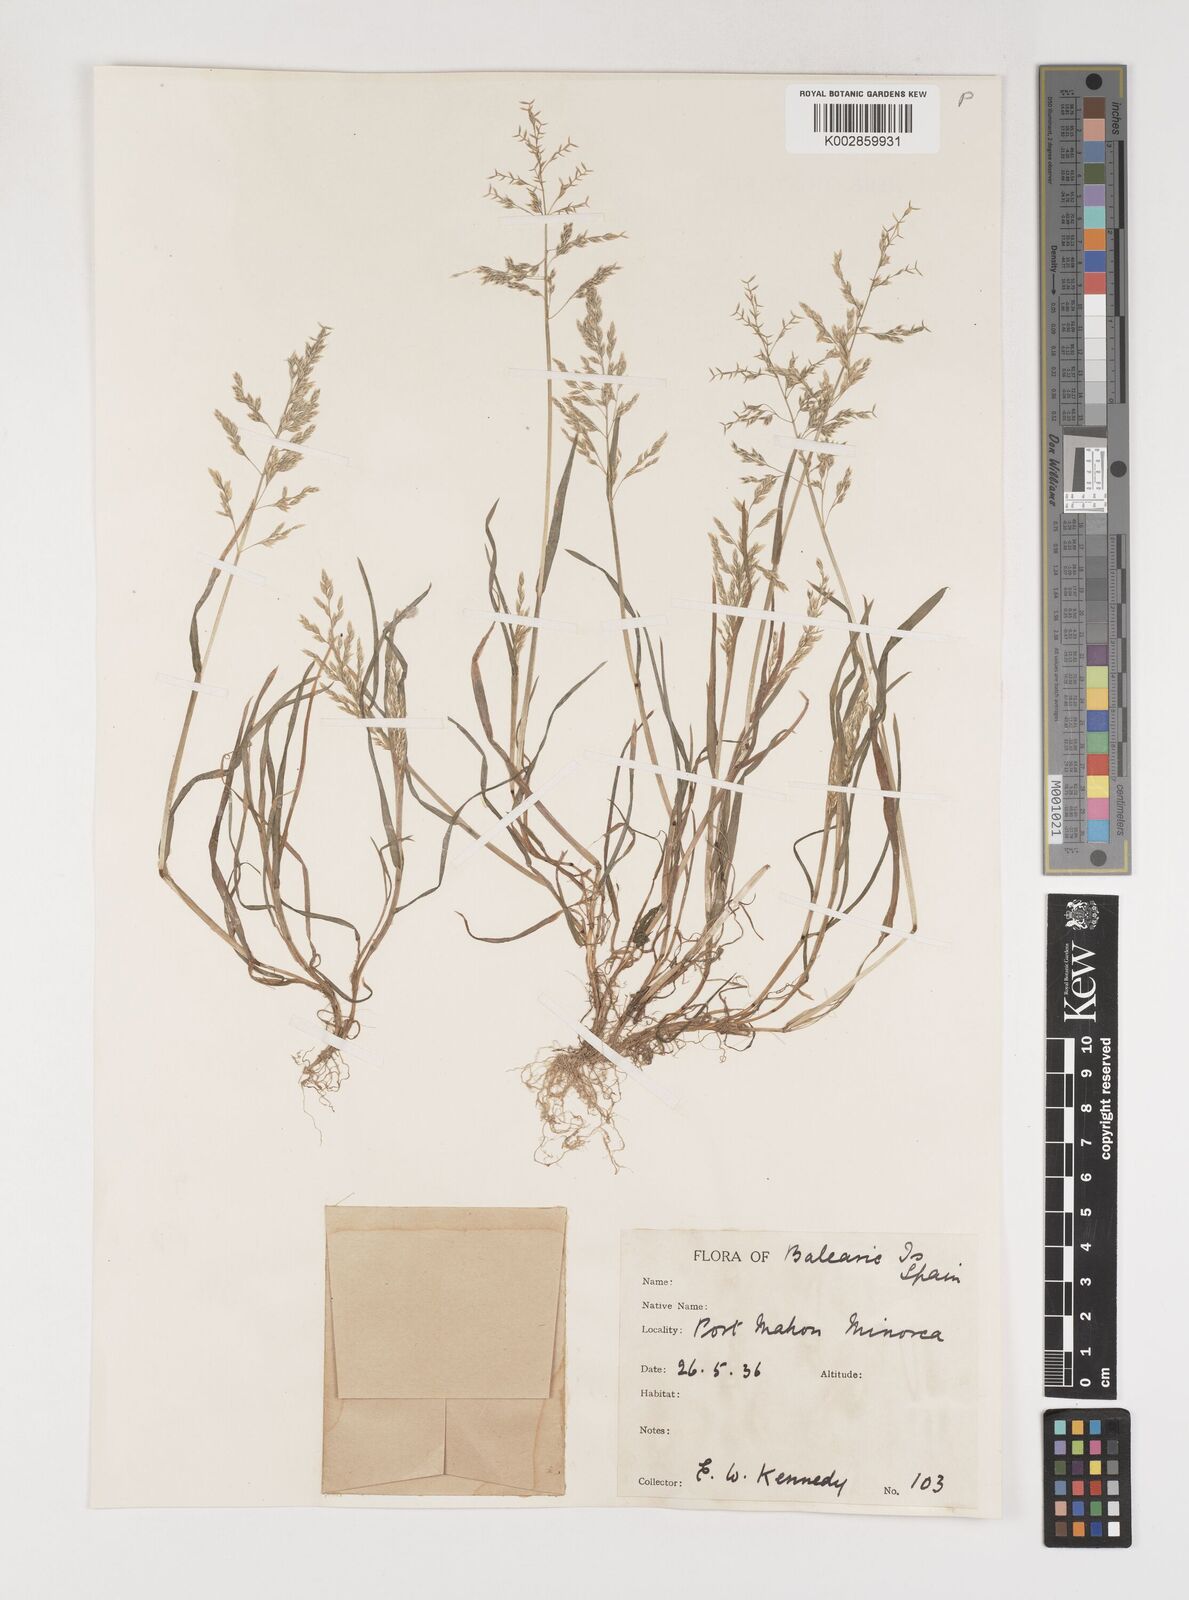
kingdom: Plantae
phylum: Tracheophyta
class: Liliopsida
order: Poales
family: Poaceae
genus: Poa
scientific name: Poa annua
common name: Annual bluegrass
